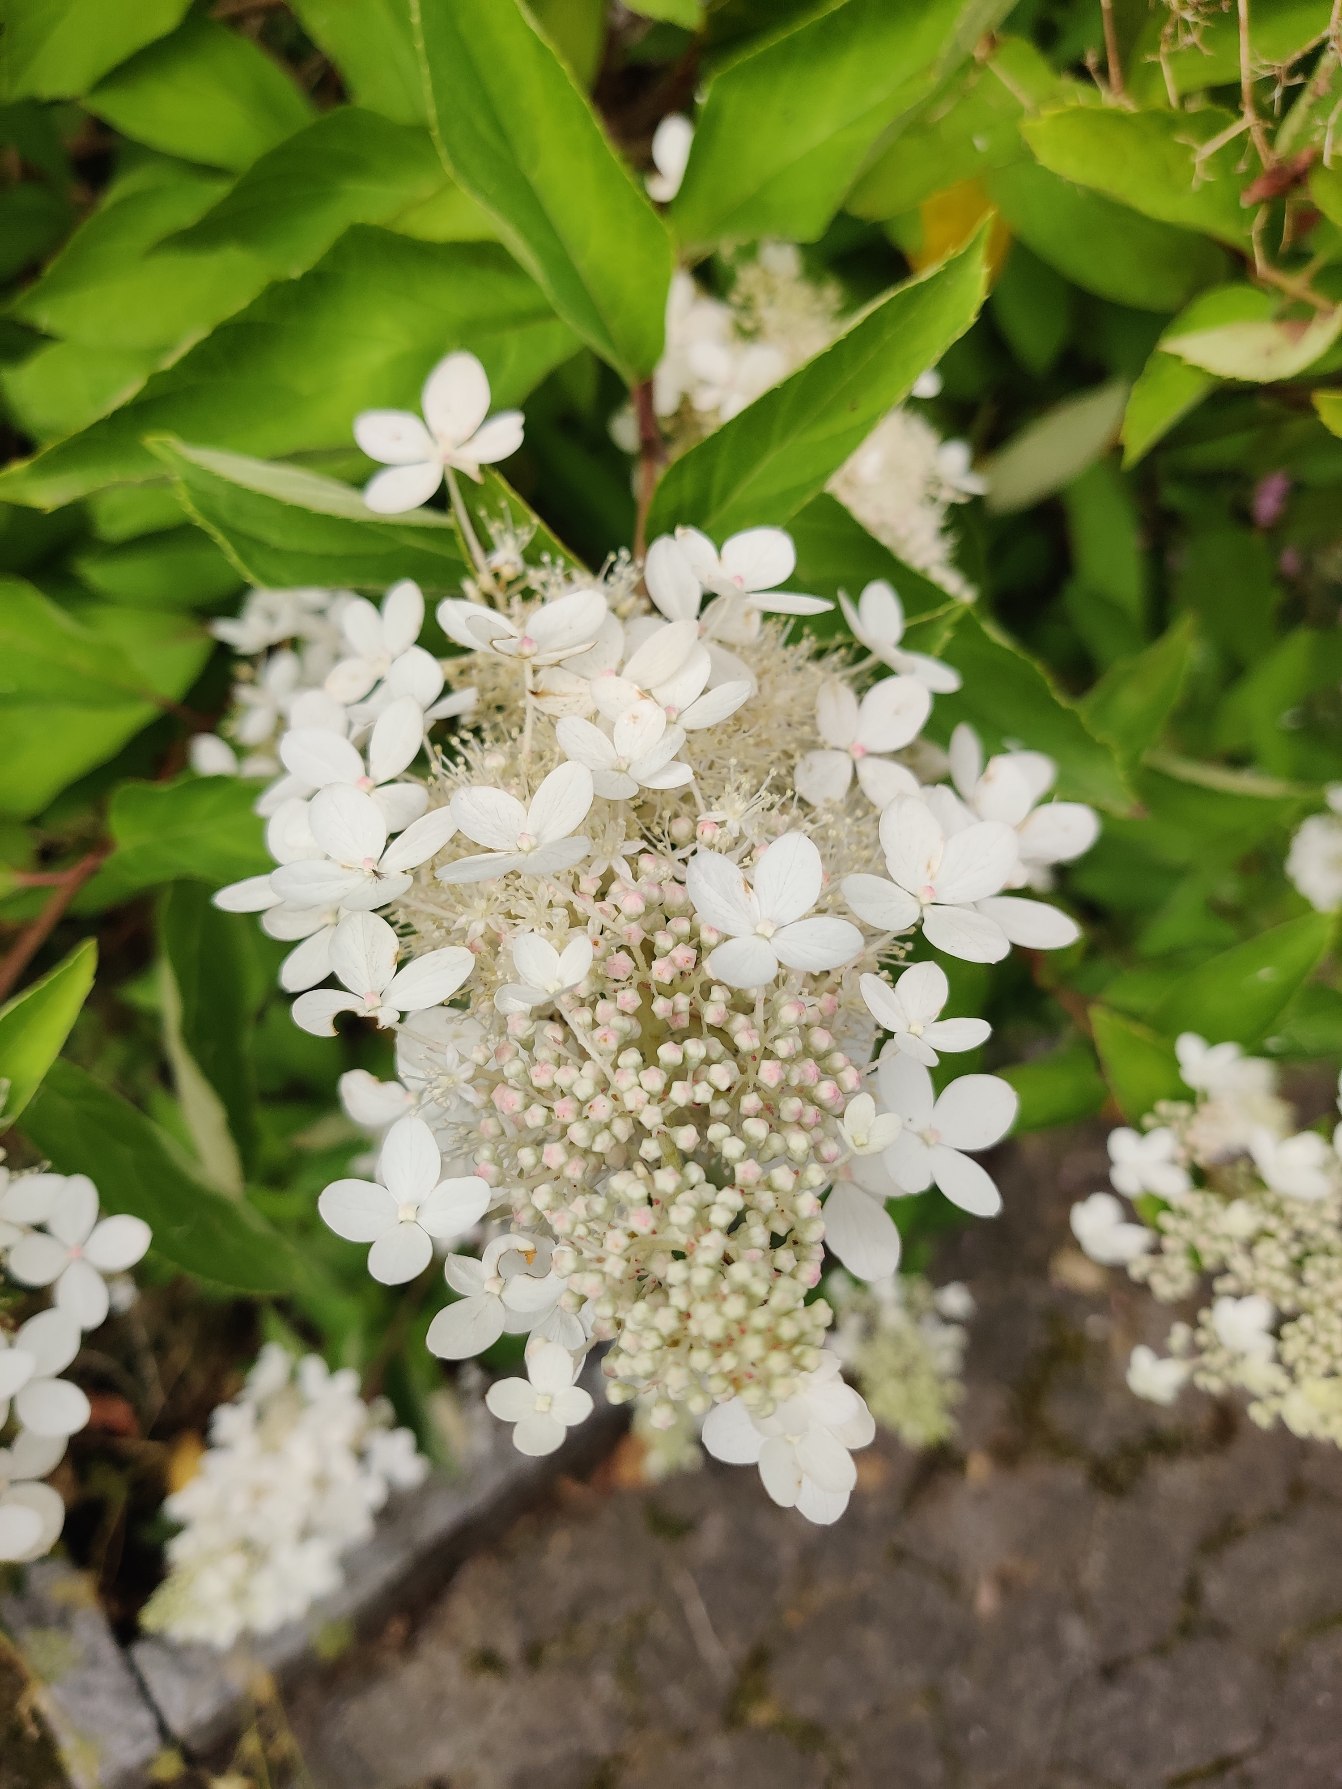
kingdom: Plantae
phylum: Tracheophyta
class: Magnoliopsida
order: Dipsacales
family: Viburnaceae
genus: Viburnum
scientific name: Viburnum
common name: Kvalkvedslægten
